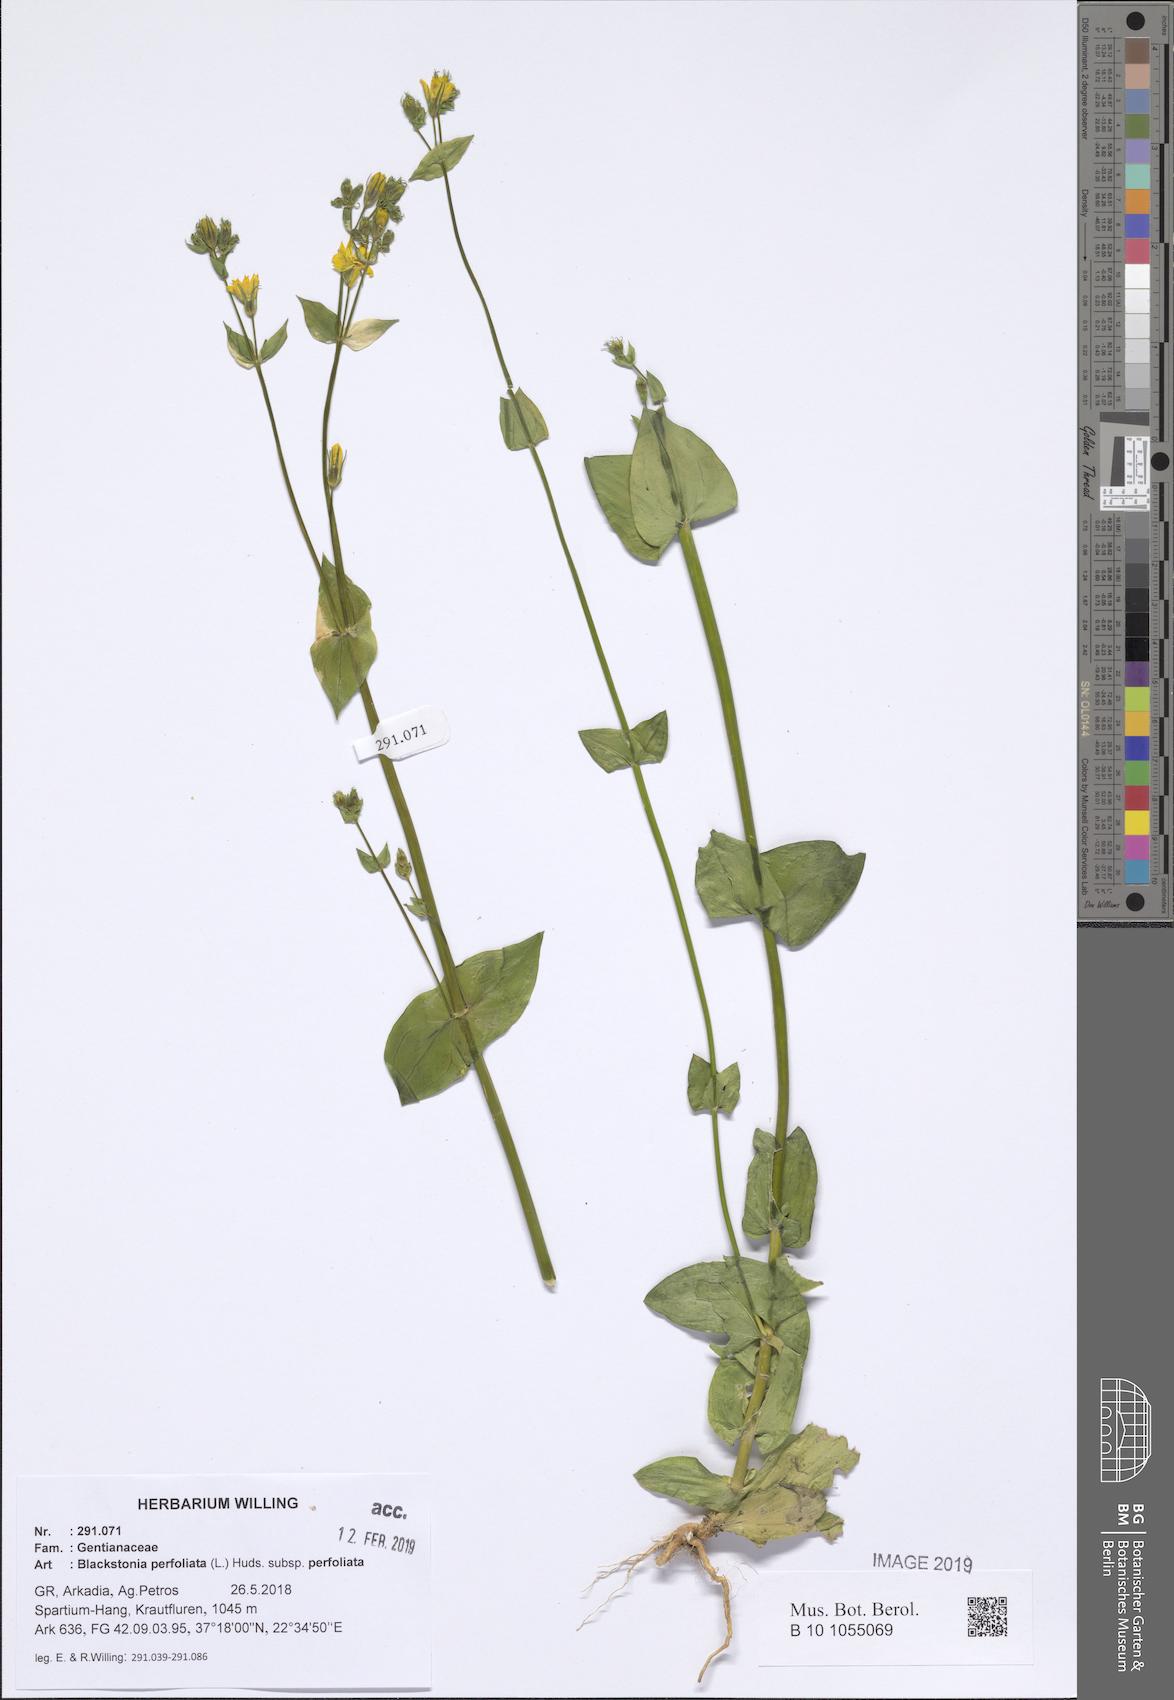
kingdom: Plantae
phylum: Tracheophyta
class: Magnoliopsida
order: Gentianales
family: Gentianaceae
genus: Blackstonia
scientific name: Blackstonia perfoliata
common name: Yellow-wort
